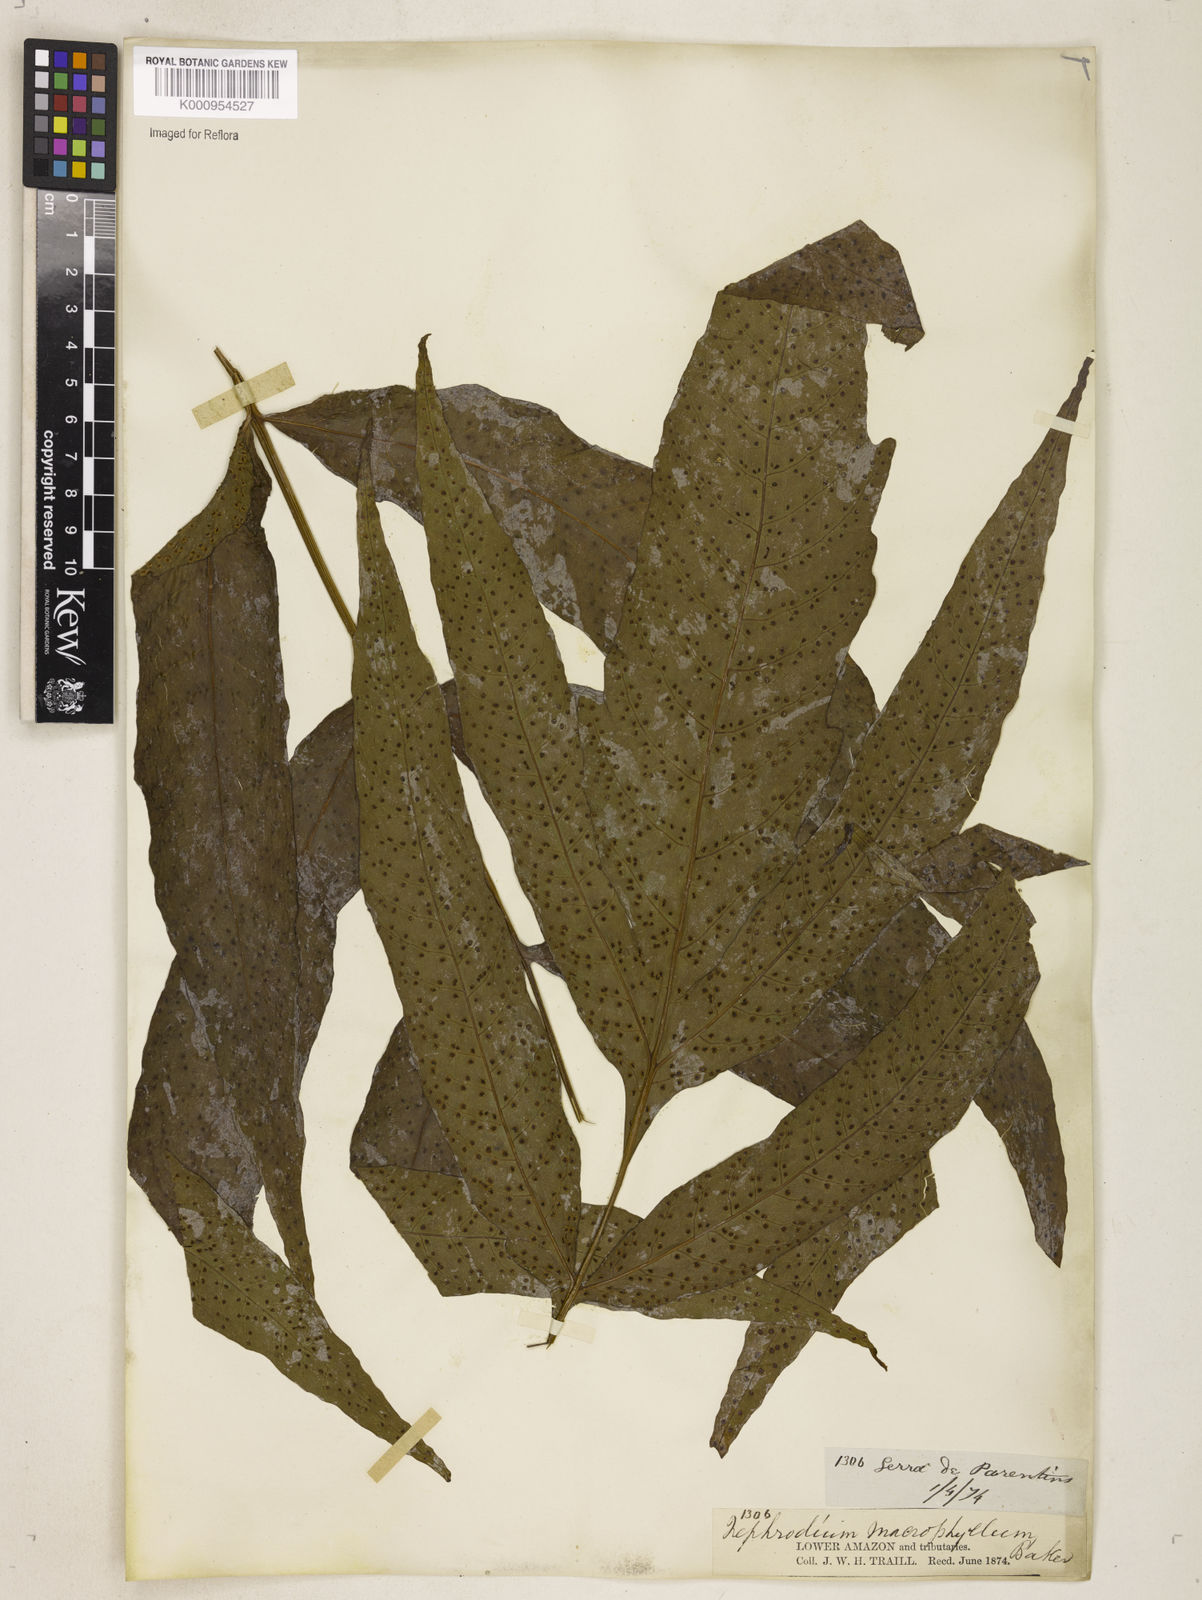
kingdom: Plantae
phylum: Tracheophyta
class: Polypodiopsida
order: Polypodiales
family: Tectariaceae
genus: Tectaria
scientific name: Tectaria incisa
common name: Incised halberd fern
